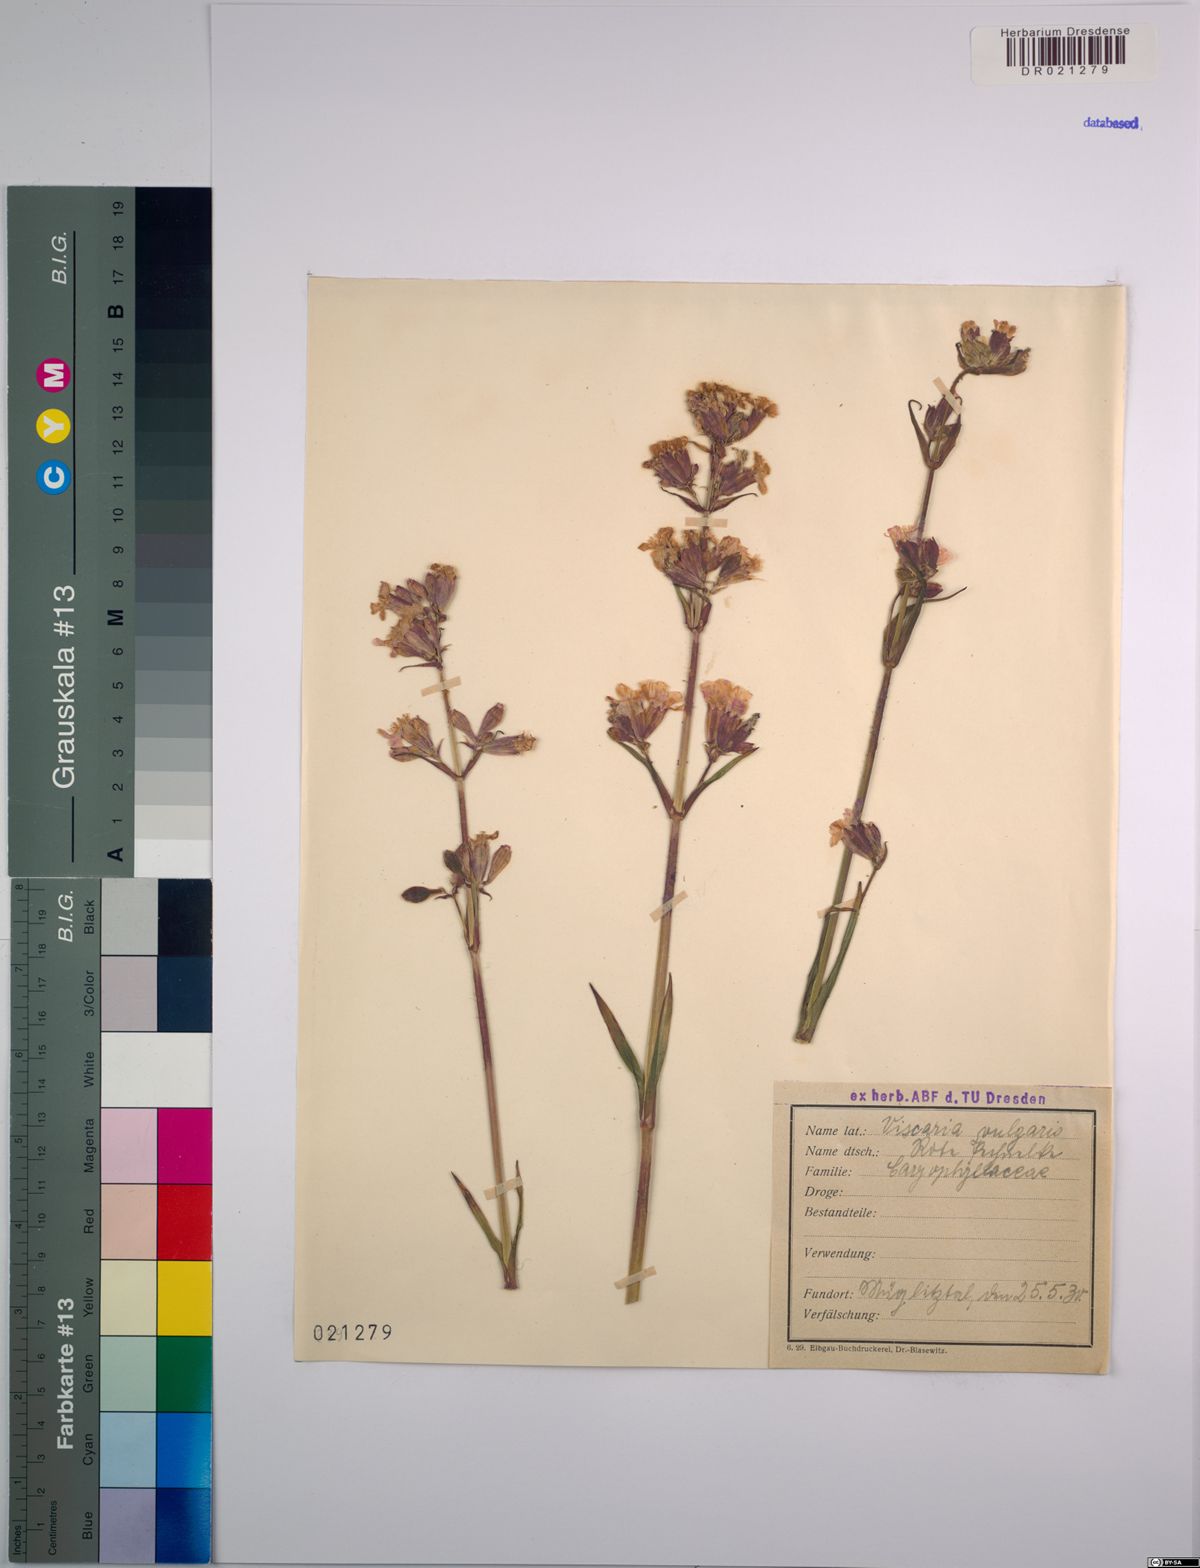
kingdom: Plantae
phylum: Tracheophyta
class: Magnoliopsida
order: Caryophyllales
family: Caryophyllaceae
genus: Viscaria
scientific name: Viscaria vulgaris
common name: Clammy campion
